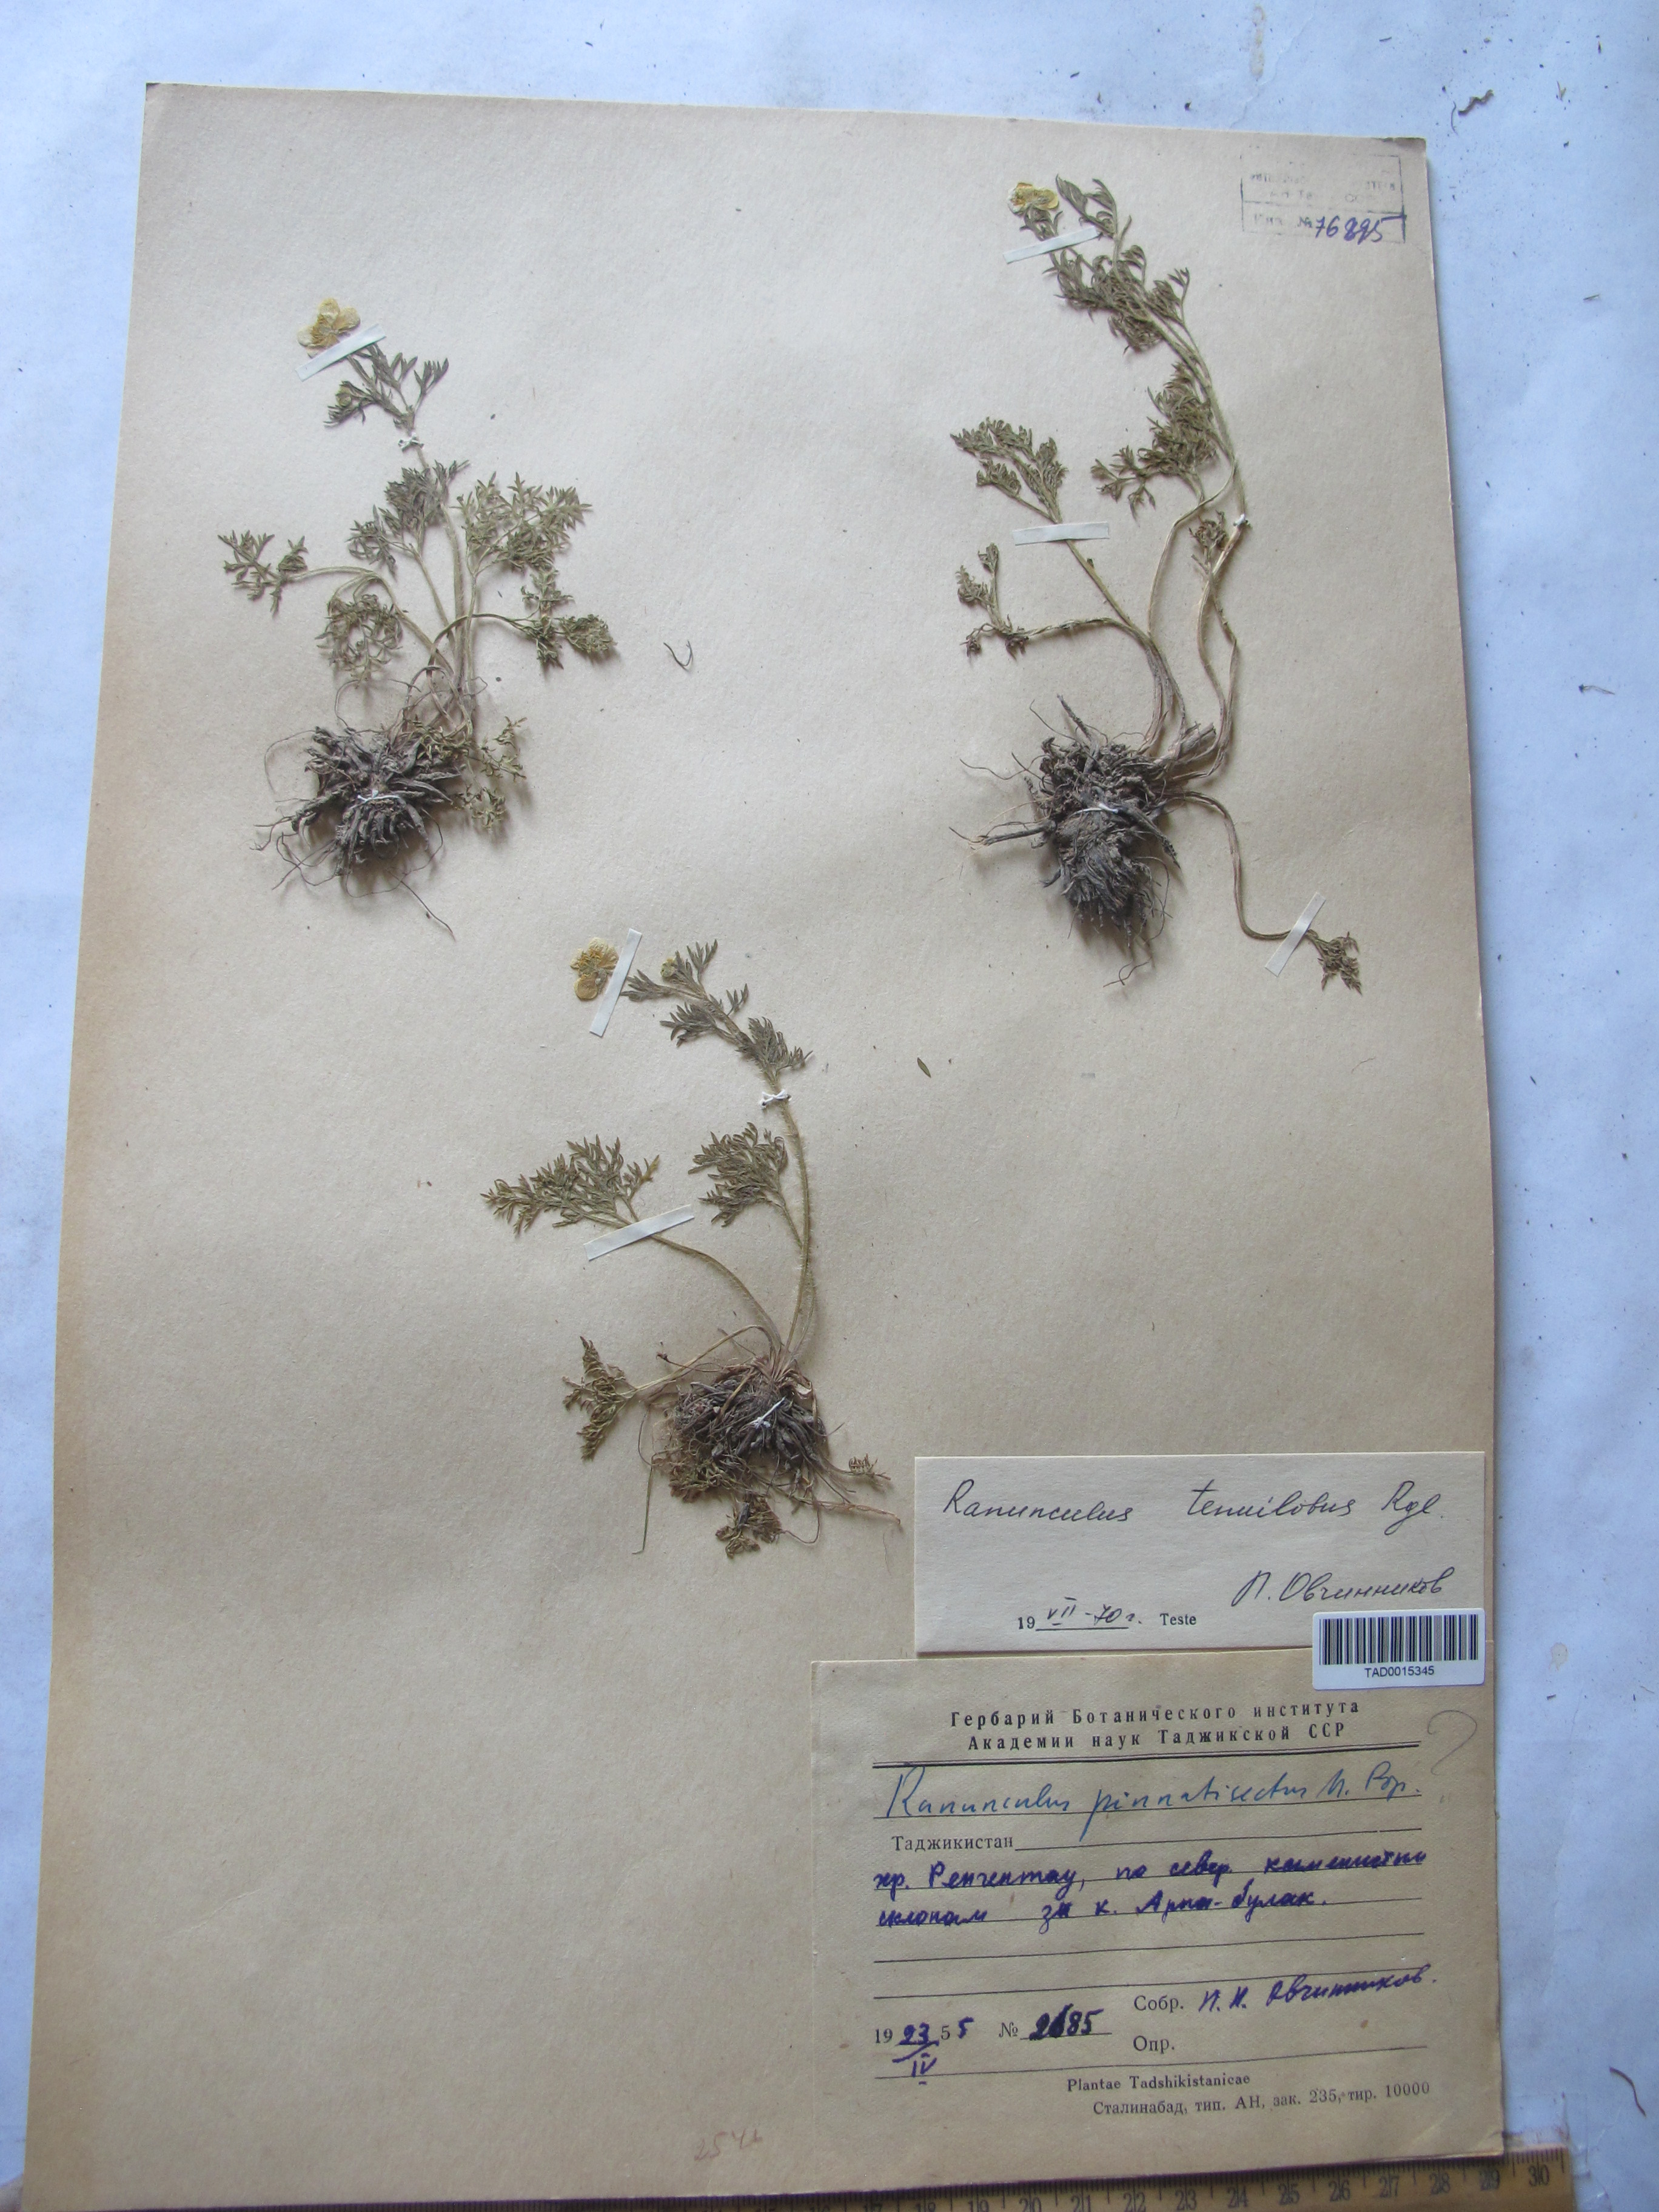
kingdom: Plantae
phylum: Tracheophyta
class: Magnoliopsida
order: Ranunculales
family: Ranunculaceae
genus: Ranunculus
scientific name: Ranunculus tenuilobus
